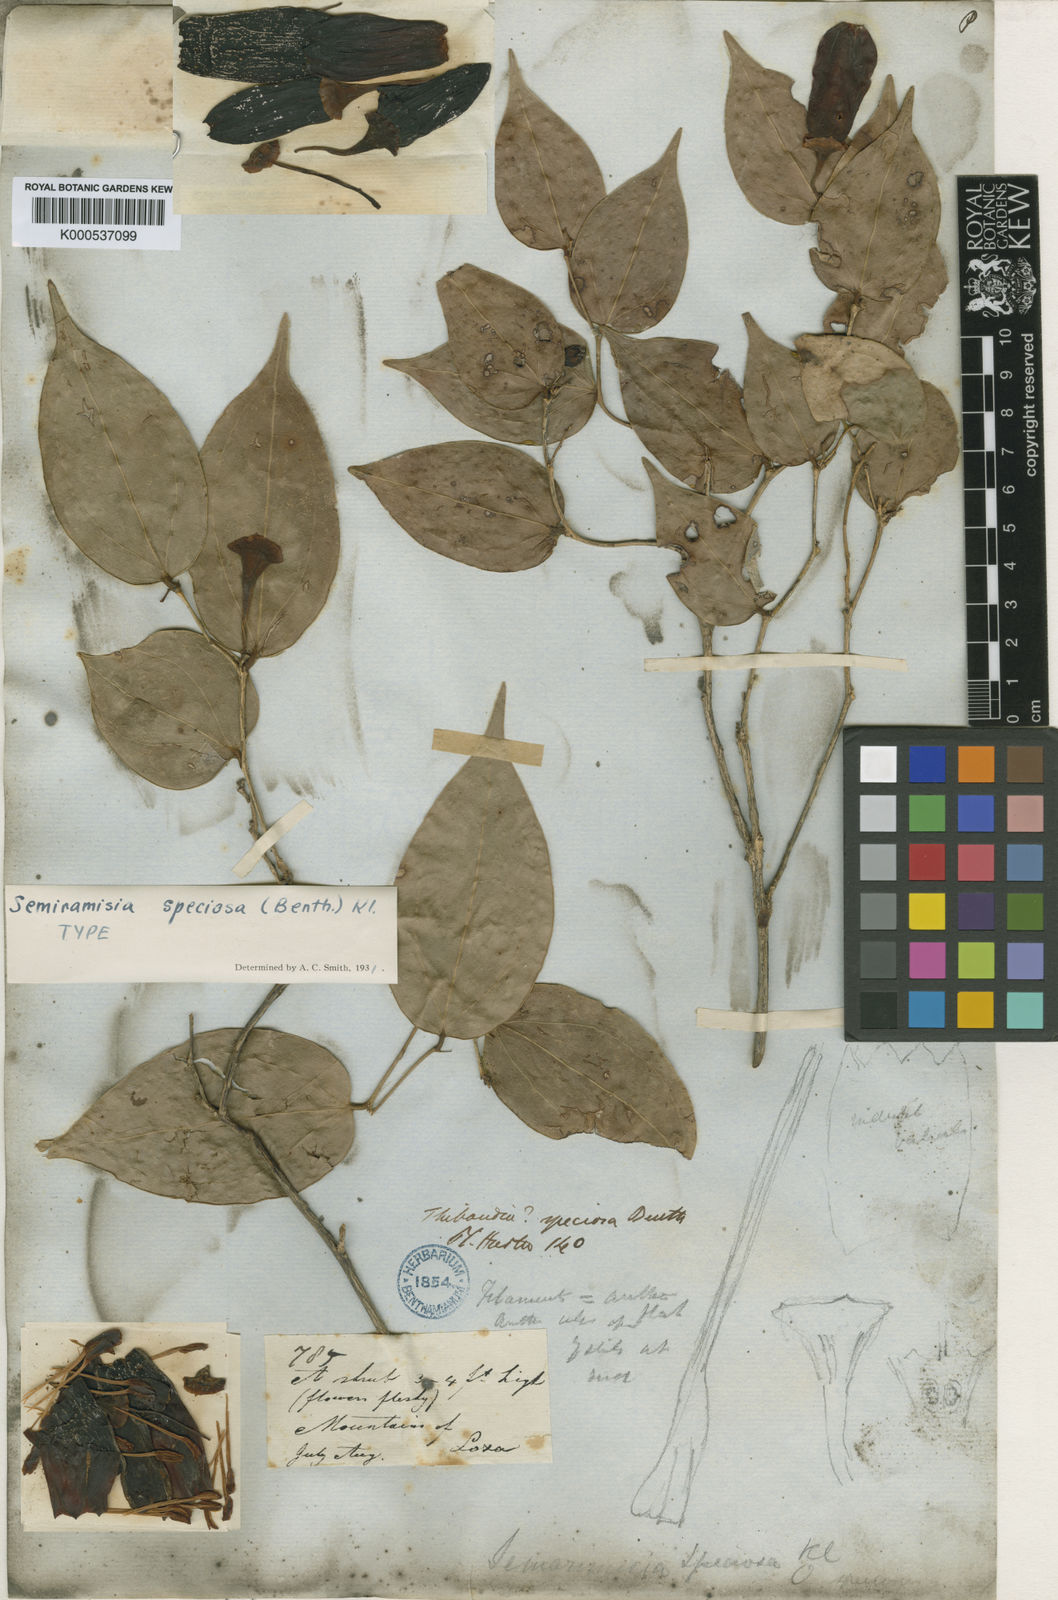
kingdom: Plantae
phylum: Tracheophyta
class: Magnoliopsida
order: Ericales
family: Ericaceae
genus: Semiramisia
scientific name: Semiramisia speciosa
